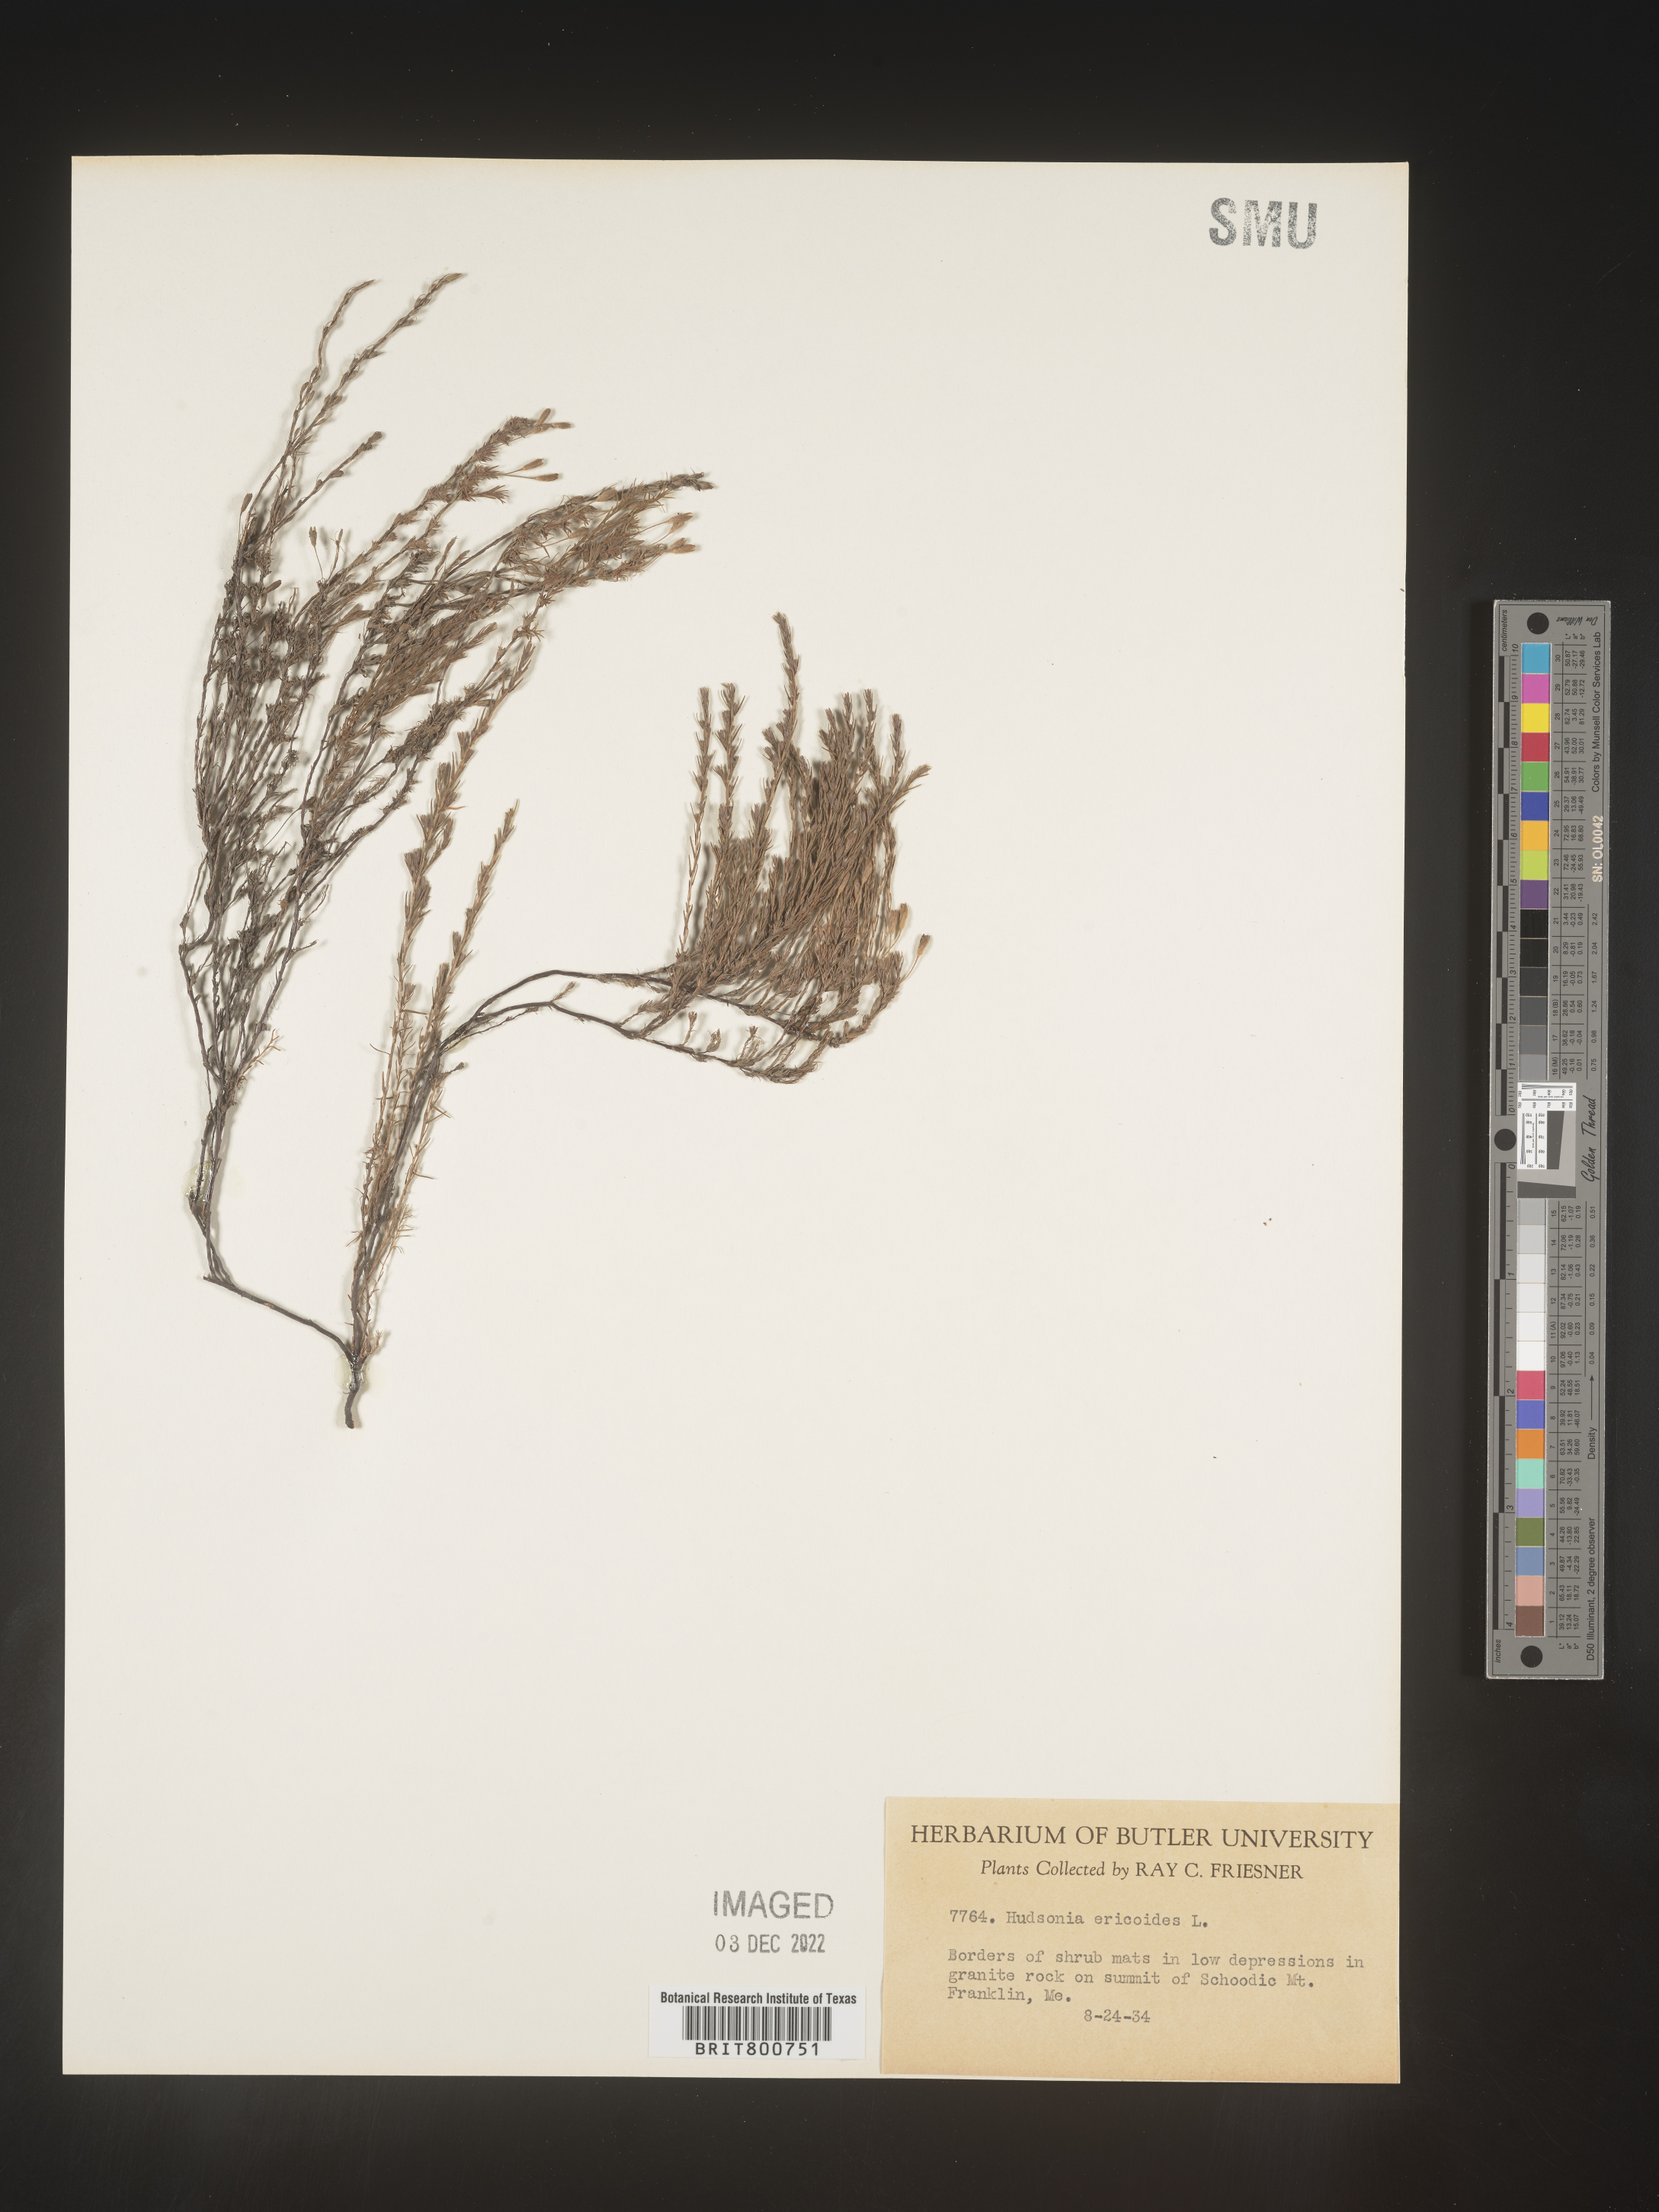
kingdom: Plantae
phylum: Tracheophyta
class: Magnoliopsida
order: Malvales
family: Cistaceae
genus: Hudsonia
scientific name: Hudsonia ericoides
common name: Golden-heather
